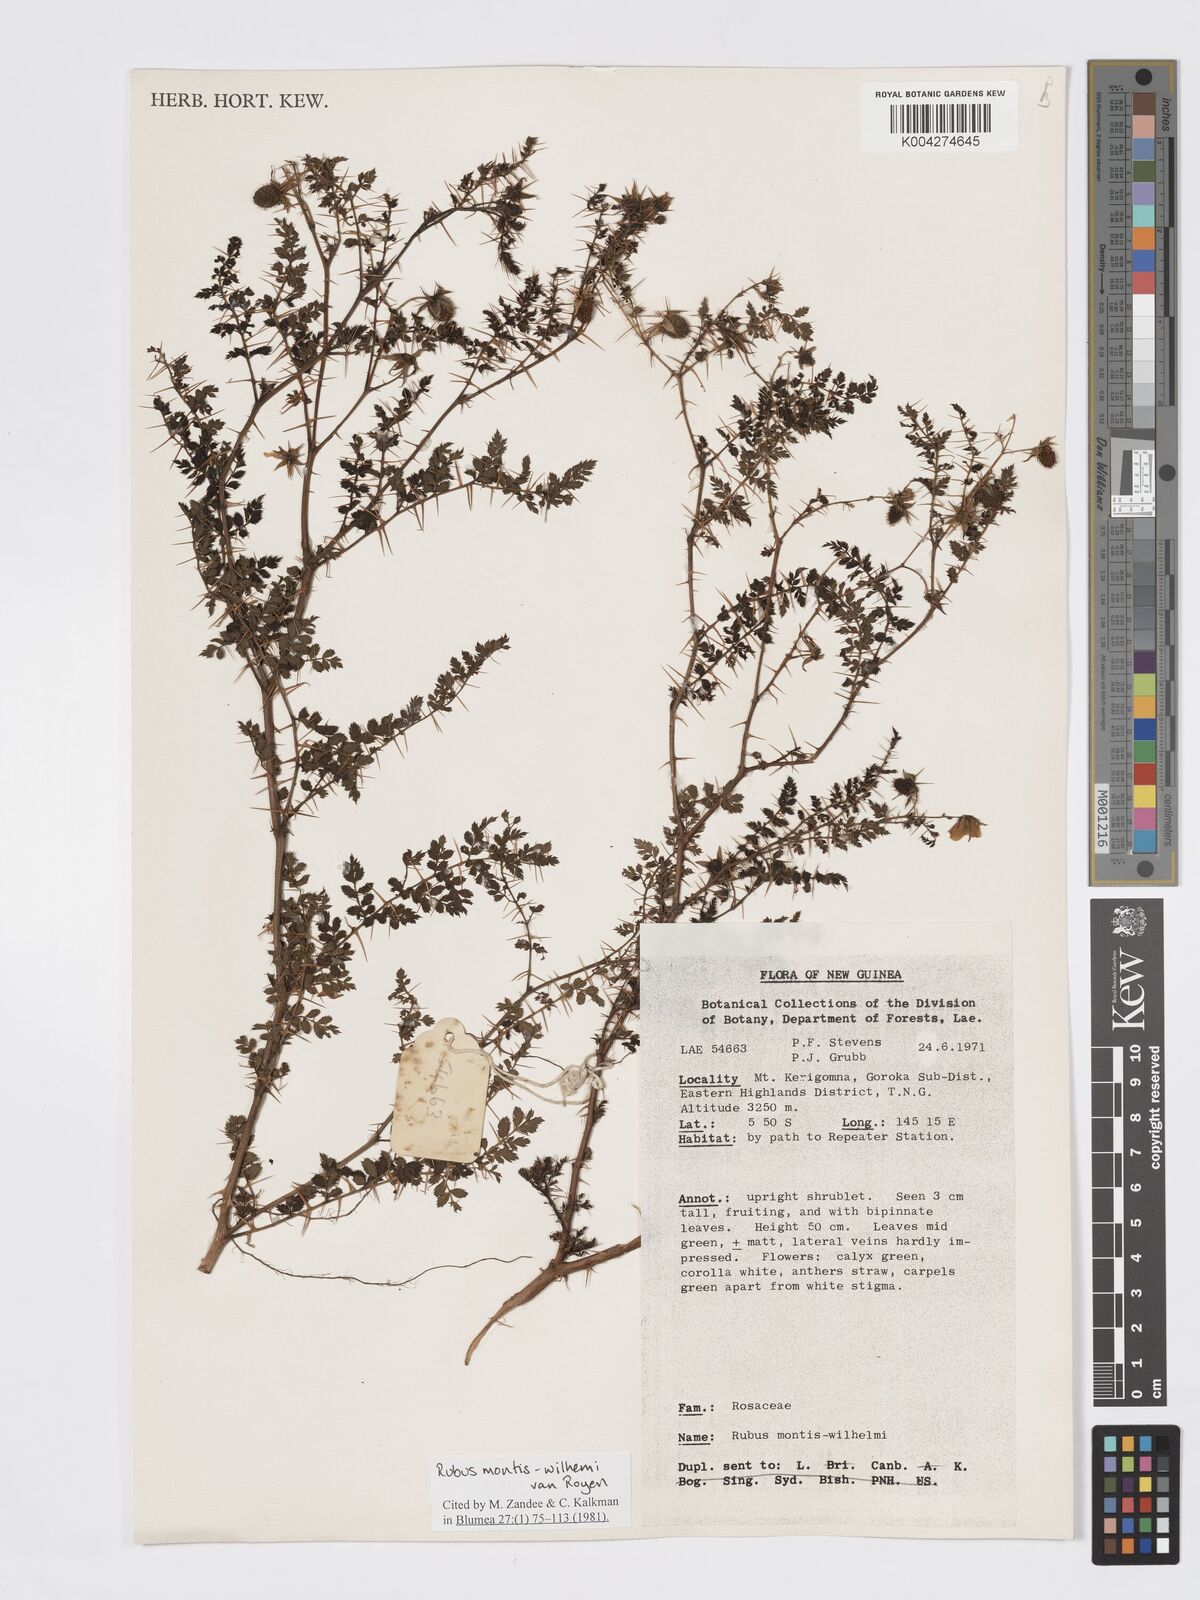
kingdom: Plantae
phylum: Tracheophyta
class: Magnoliopsida
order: Rosales
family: Rosaceae
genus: Rubus
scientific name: Rubus montis-wilhelmii
